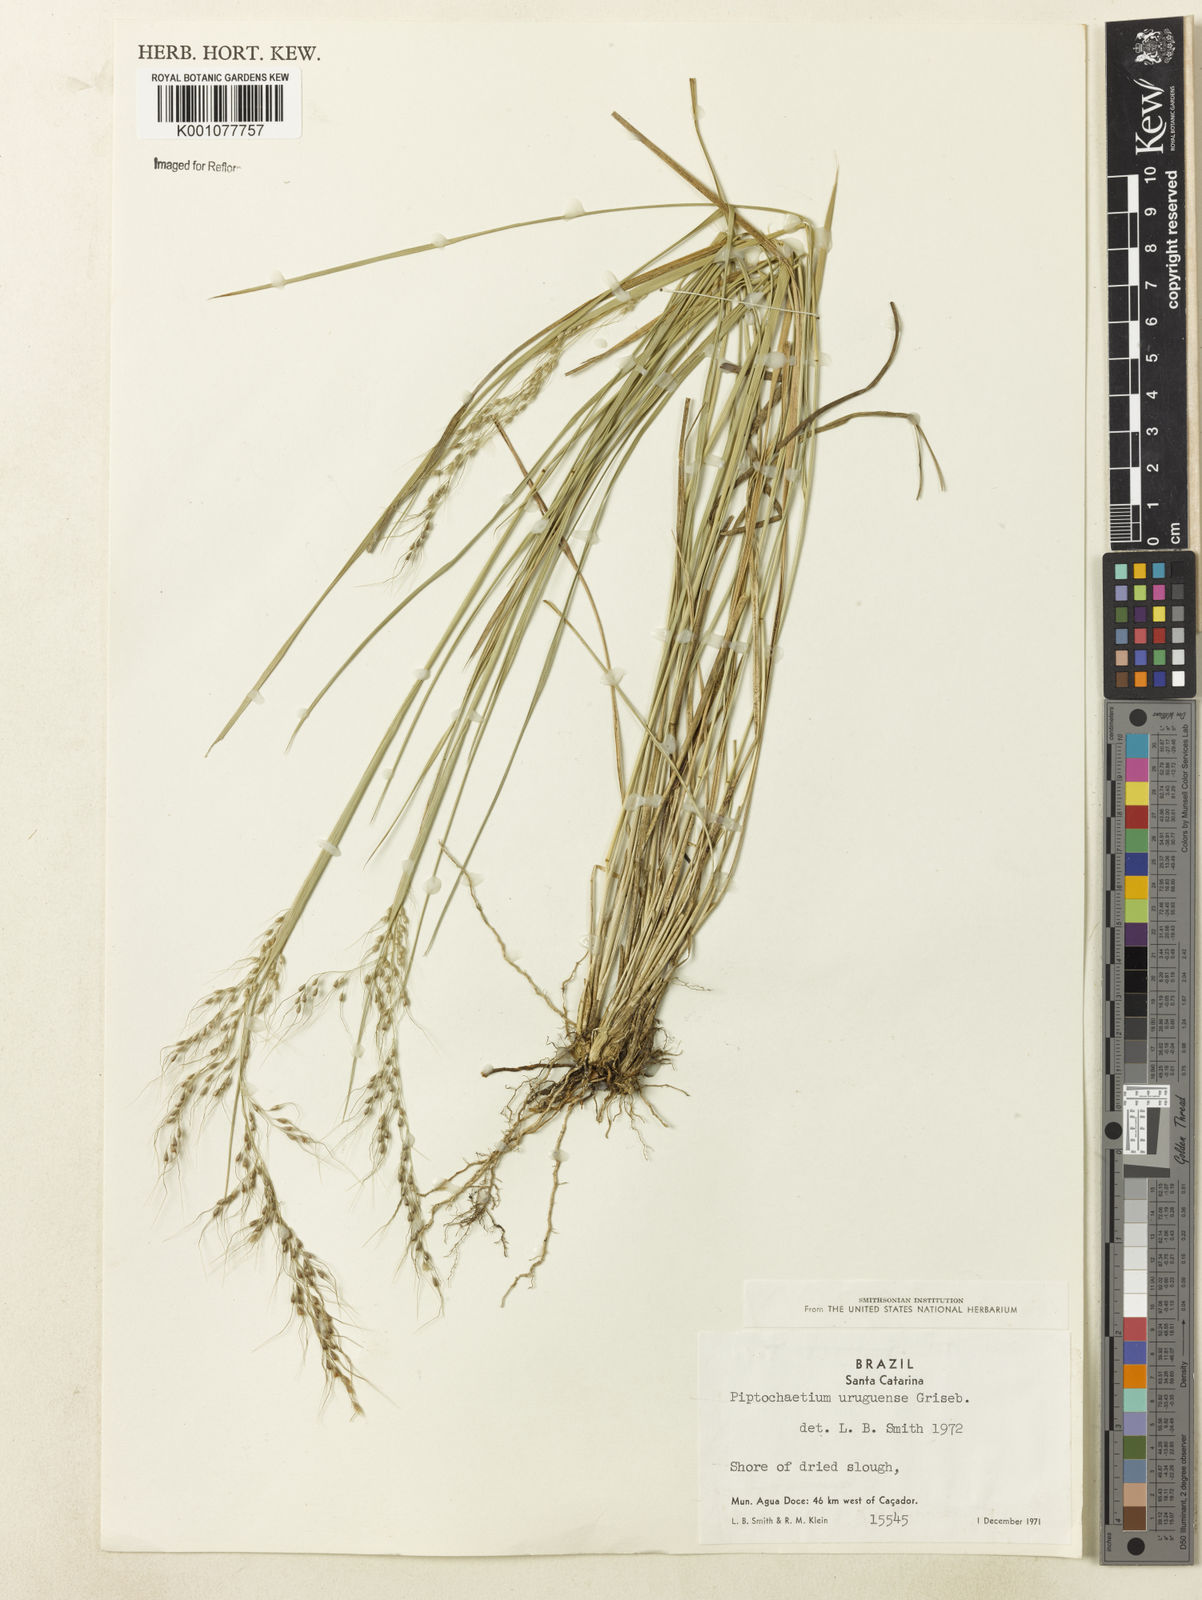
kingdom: Plantae
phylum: Tracheophyta
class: Liliopsida
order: Poales
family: Poaceae
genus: Piptochaetium
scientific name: Piptochaetium uruguense
